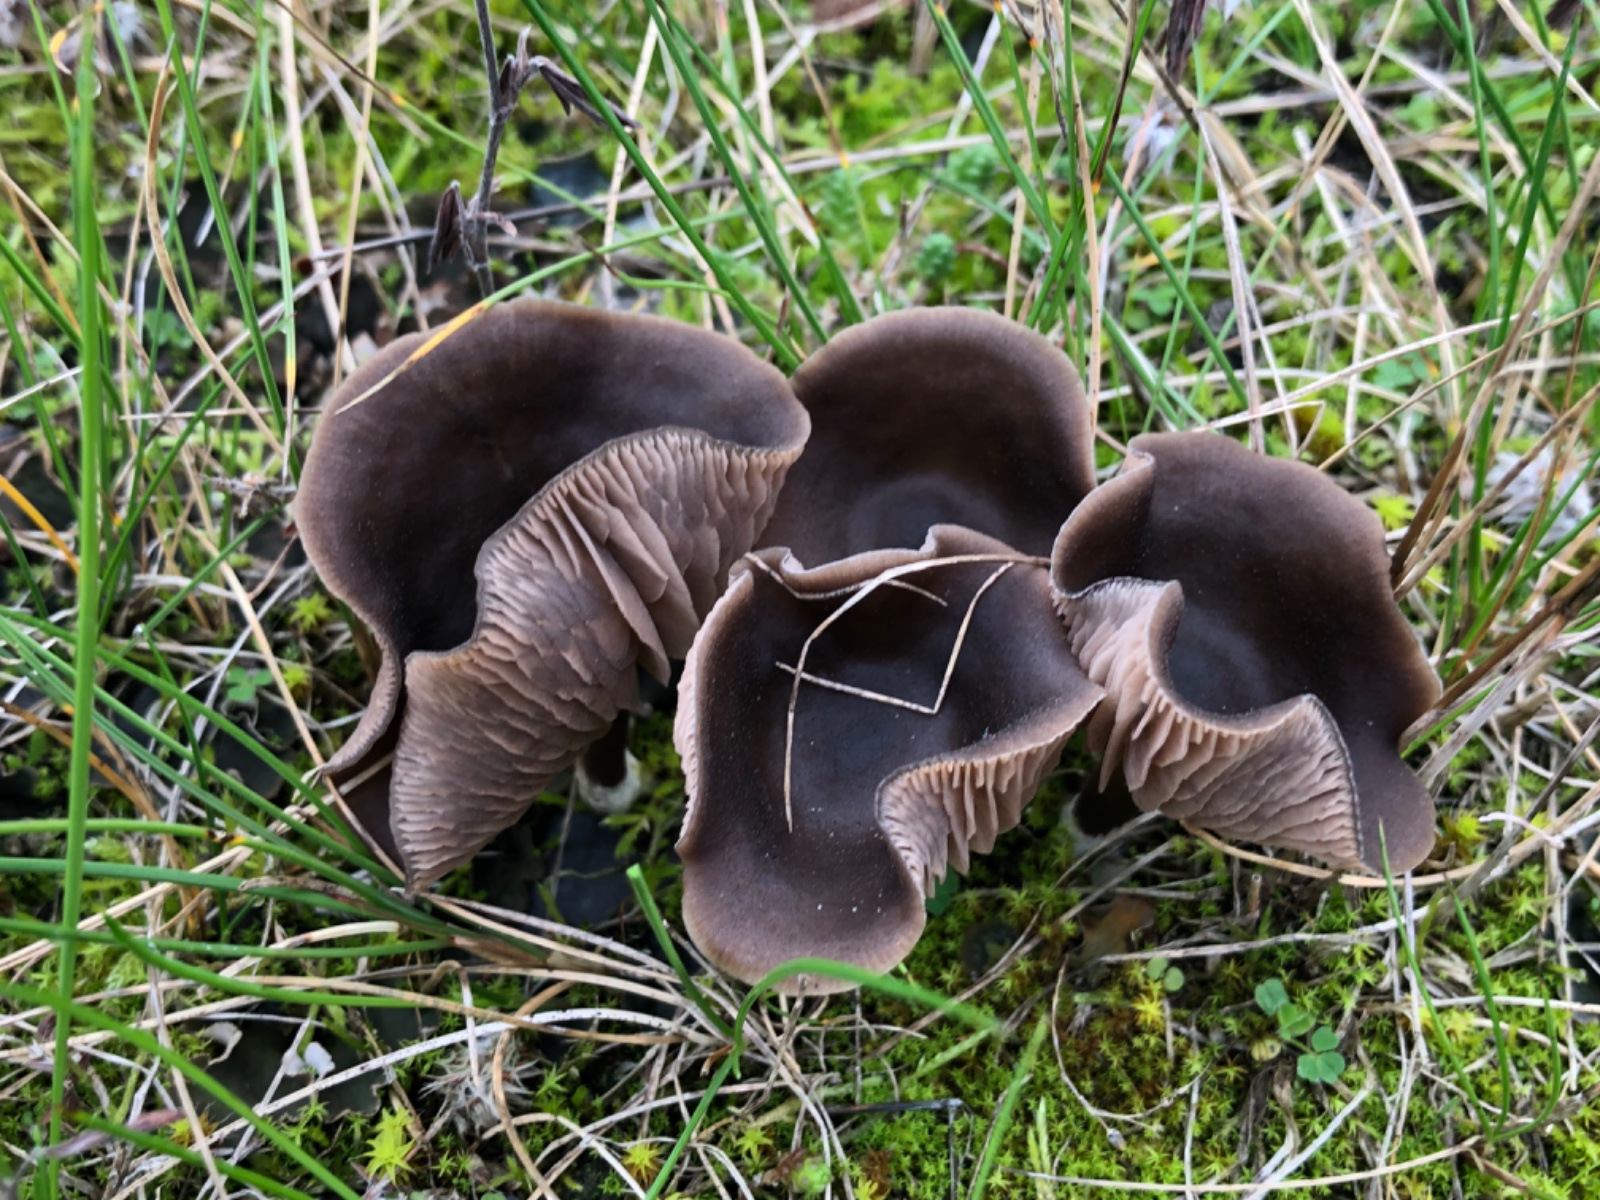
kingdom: Fungi
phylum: Basidiomycota
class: Agaricomycetes
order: Agaricales
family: Entolomataceae
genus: Entoloma
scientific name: Entoloma vindobonense
